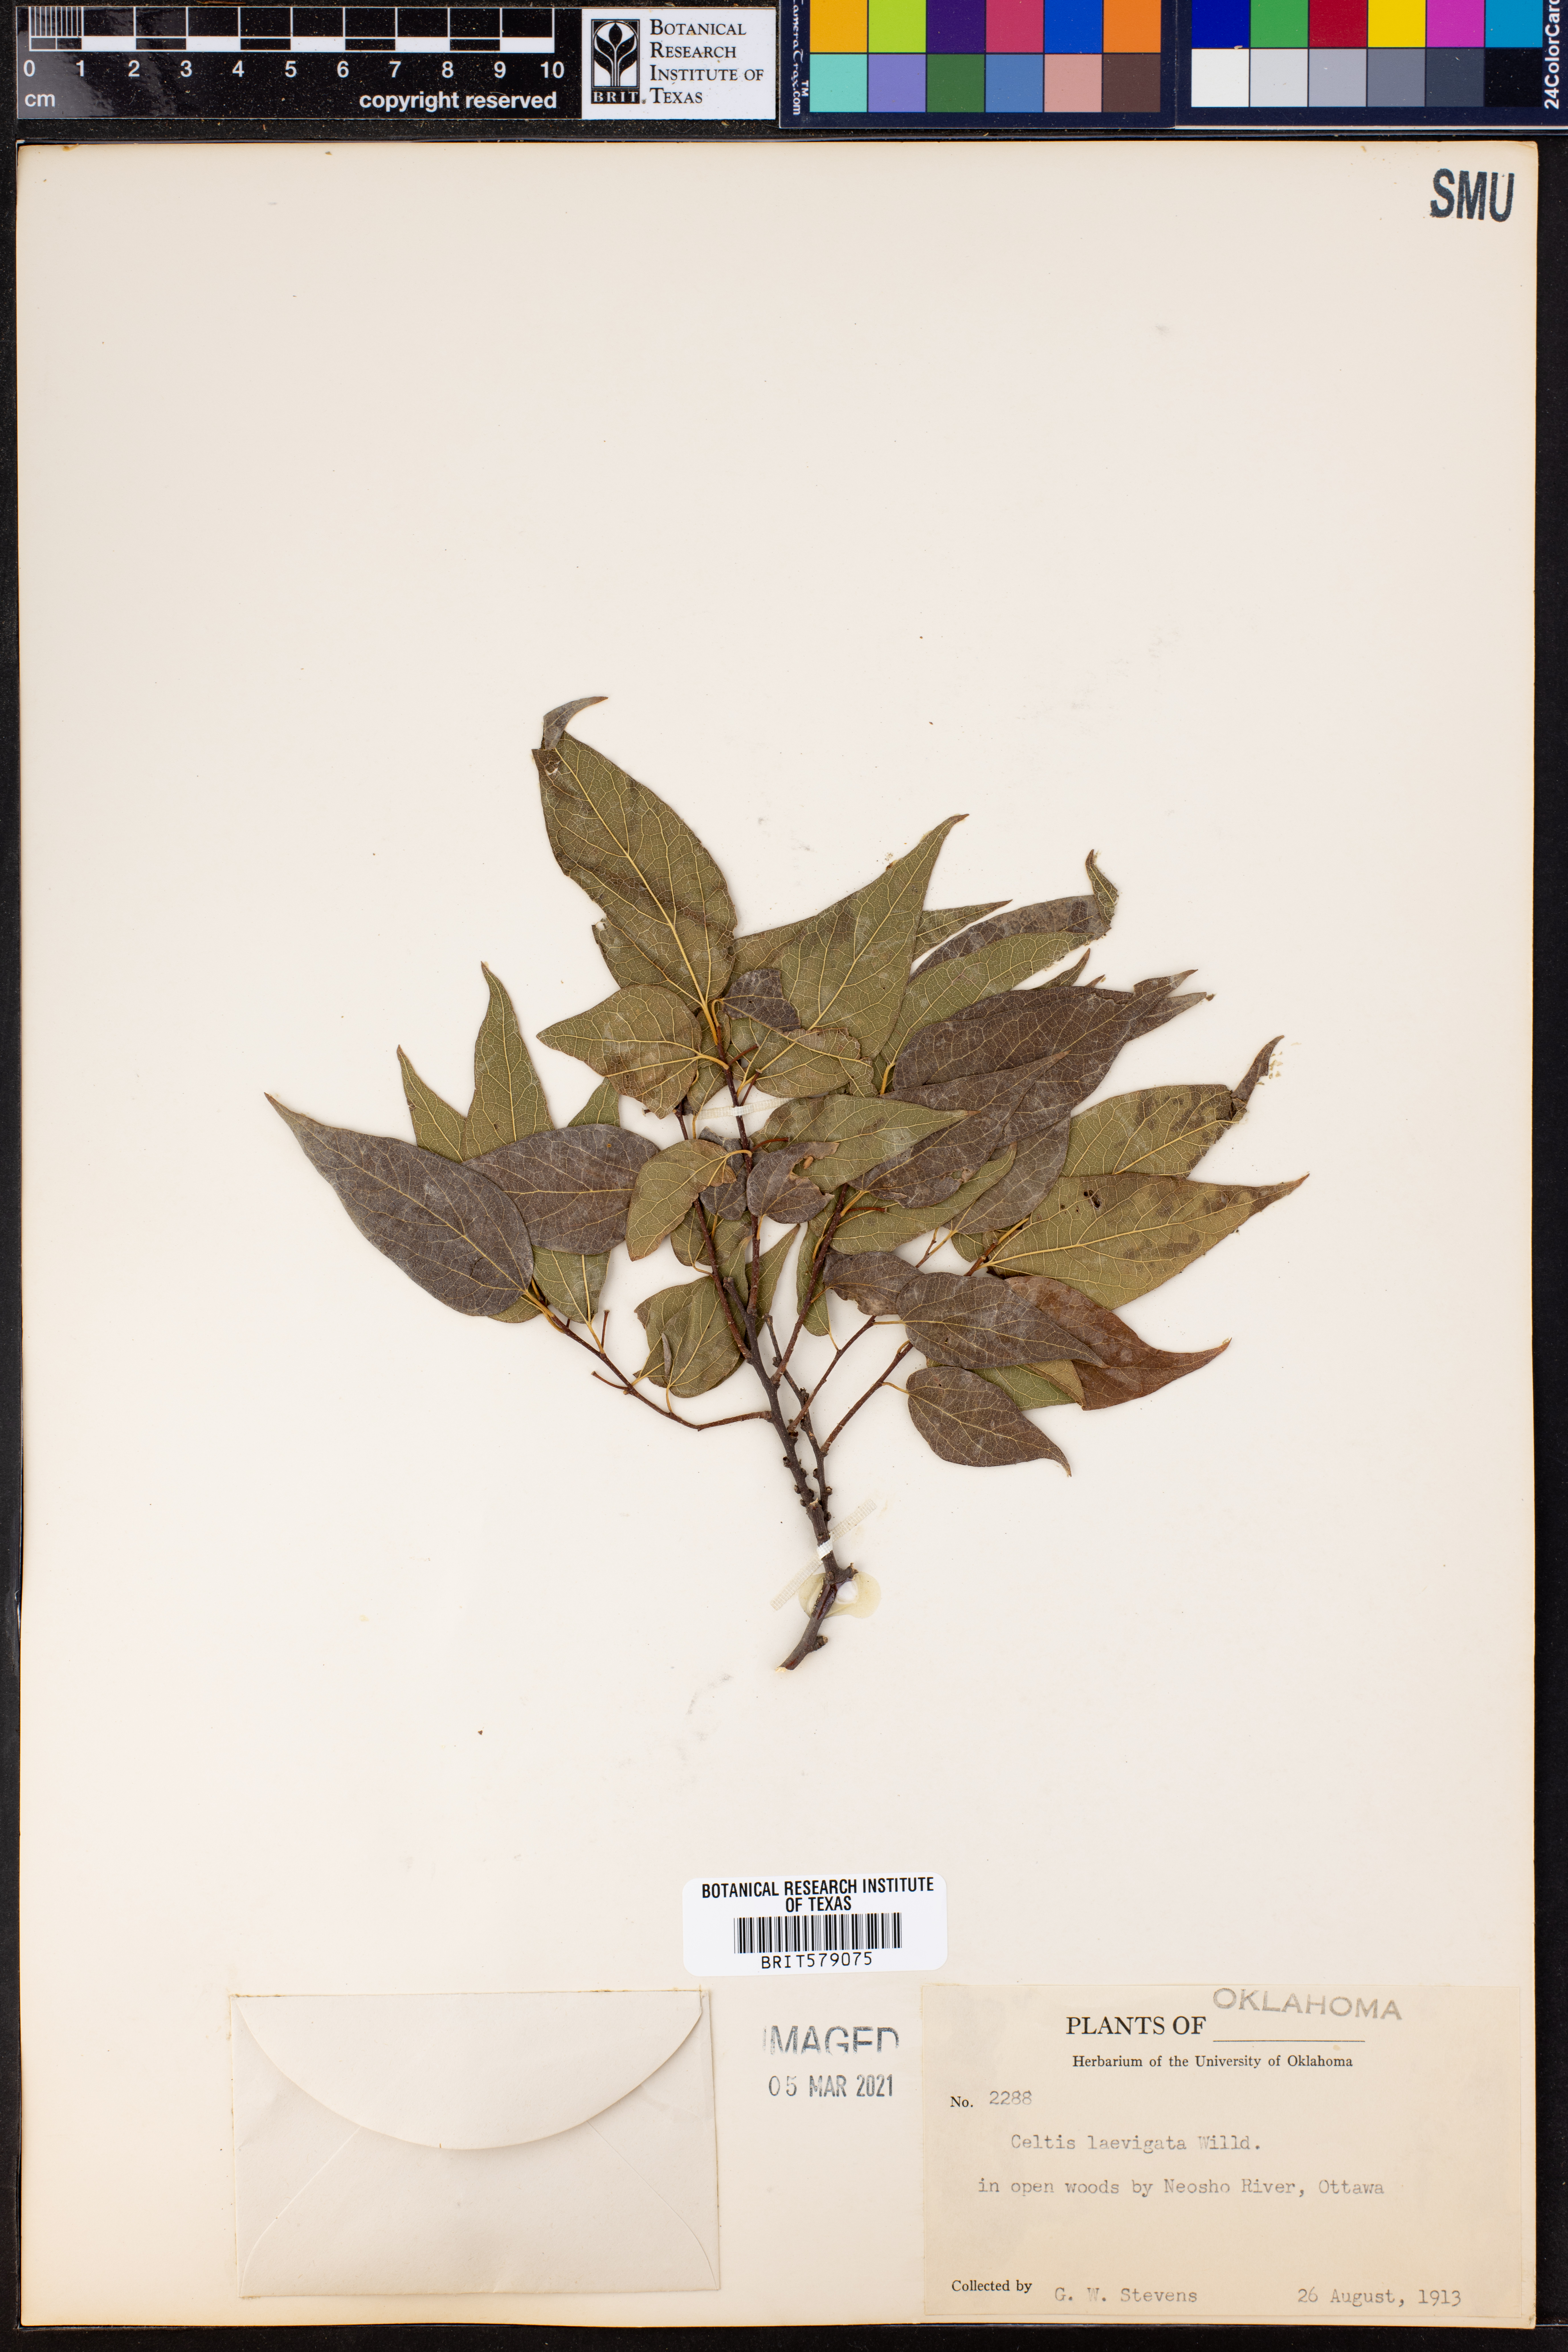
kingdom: Plantae
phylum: Tracheophyta
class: Magnoliopsida
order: Rosales
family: Cannabaceae
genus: Celtis
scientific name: Celtis laevigata
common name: Sugarberry
